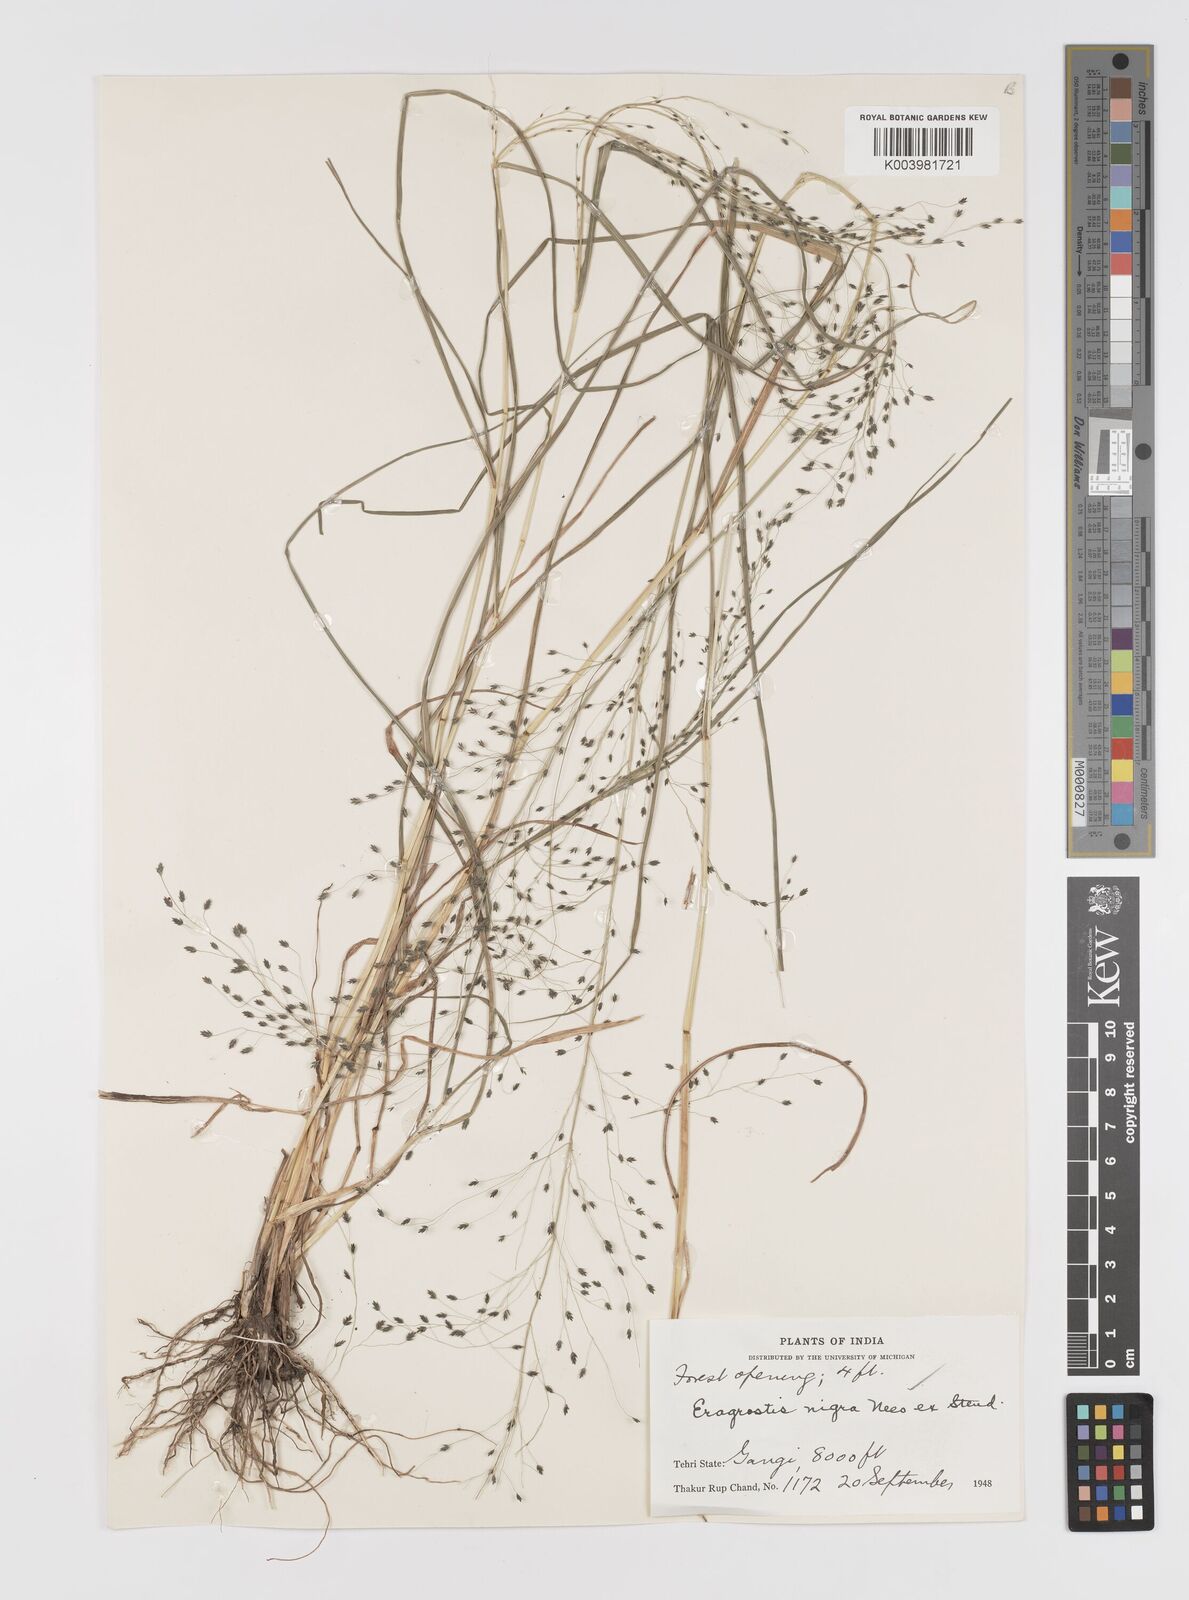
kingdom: Plantae
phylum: Tracheophyta
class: Liliopsida
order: Poales
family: Poaceae
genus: Eragrostis
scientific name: Eragrostis nigra
